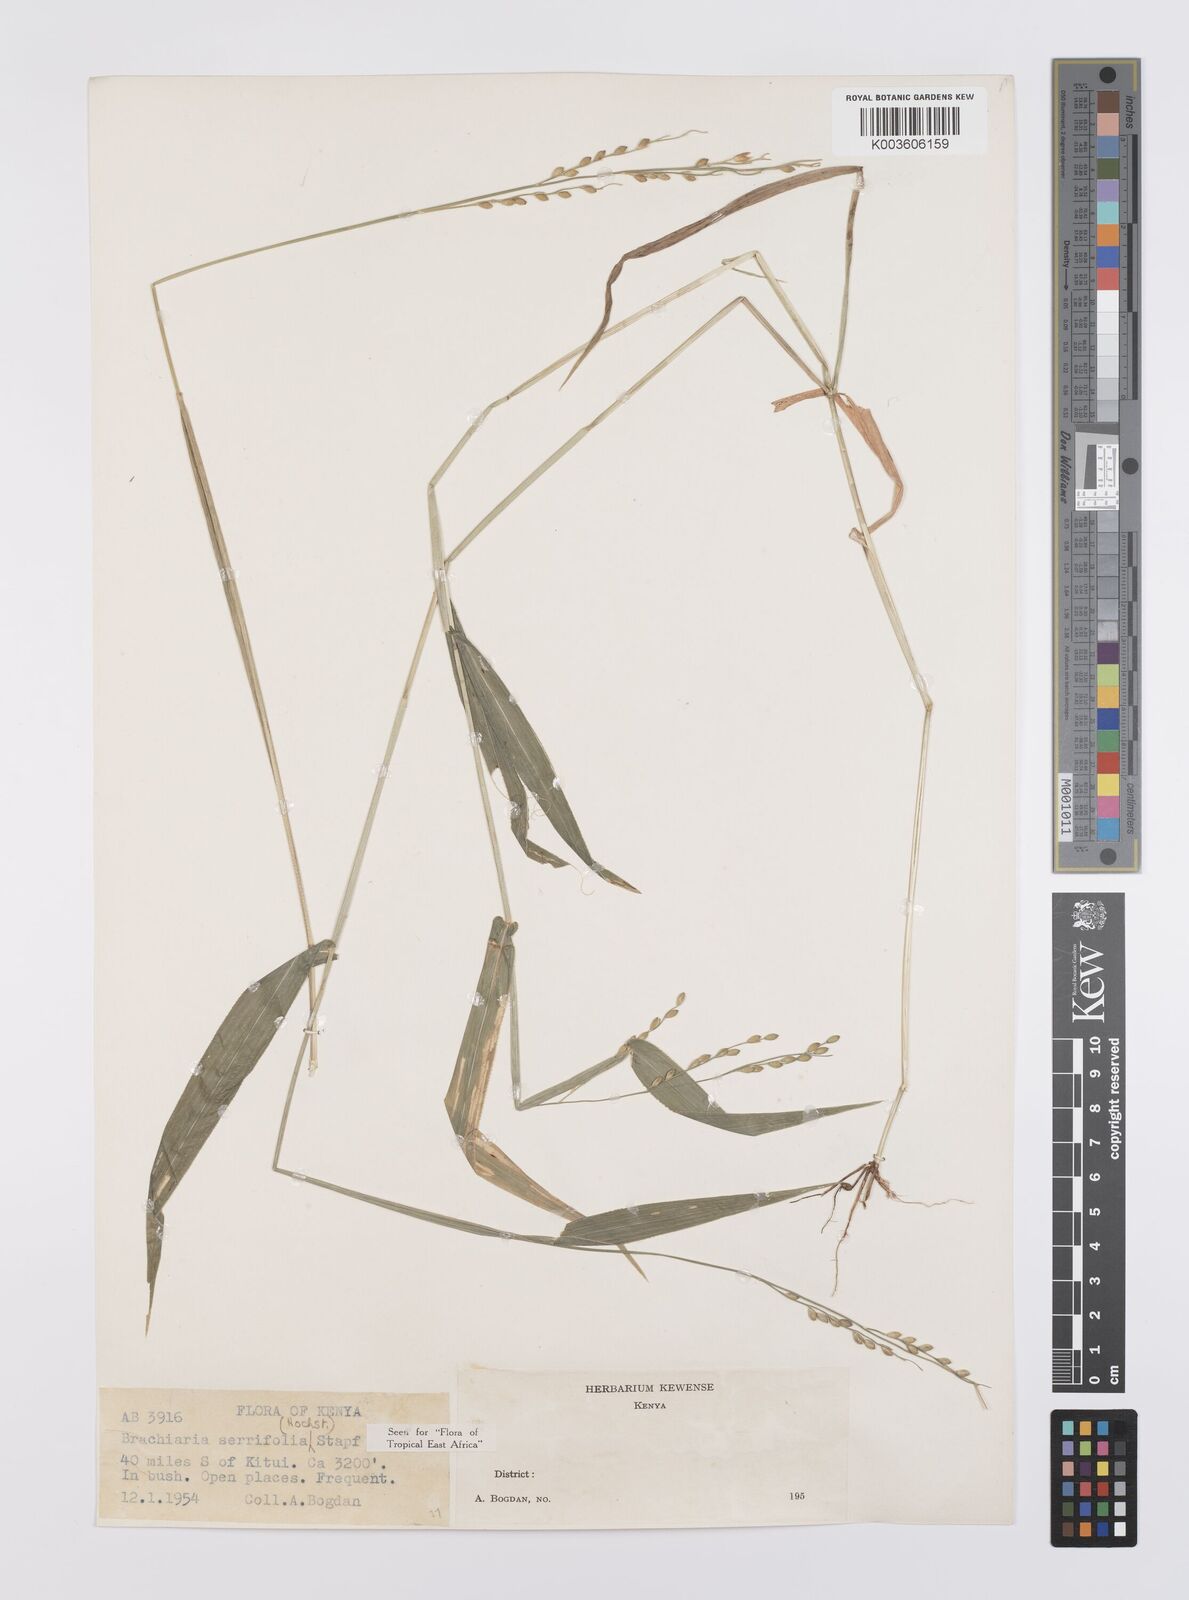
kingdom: Plantae
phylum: Tracheophyta
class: Liliopsida
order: Poales
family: Poaceae
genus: Urochloa
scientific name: Urochloa serrifolia
